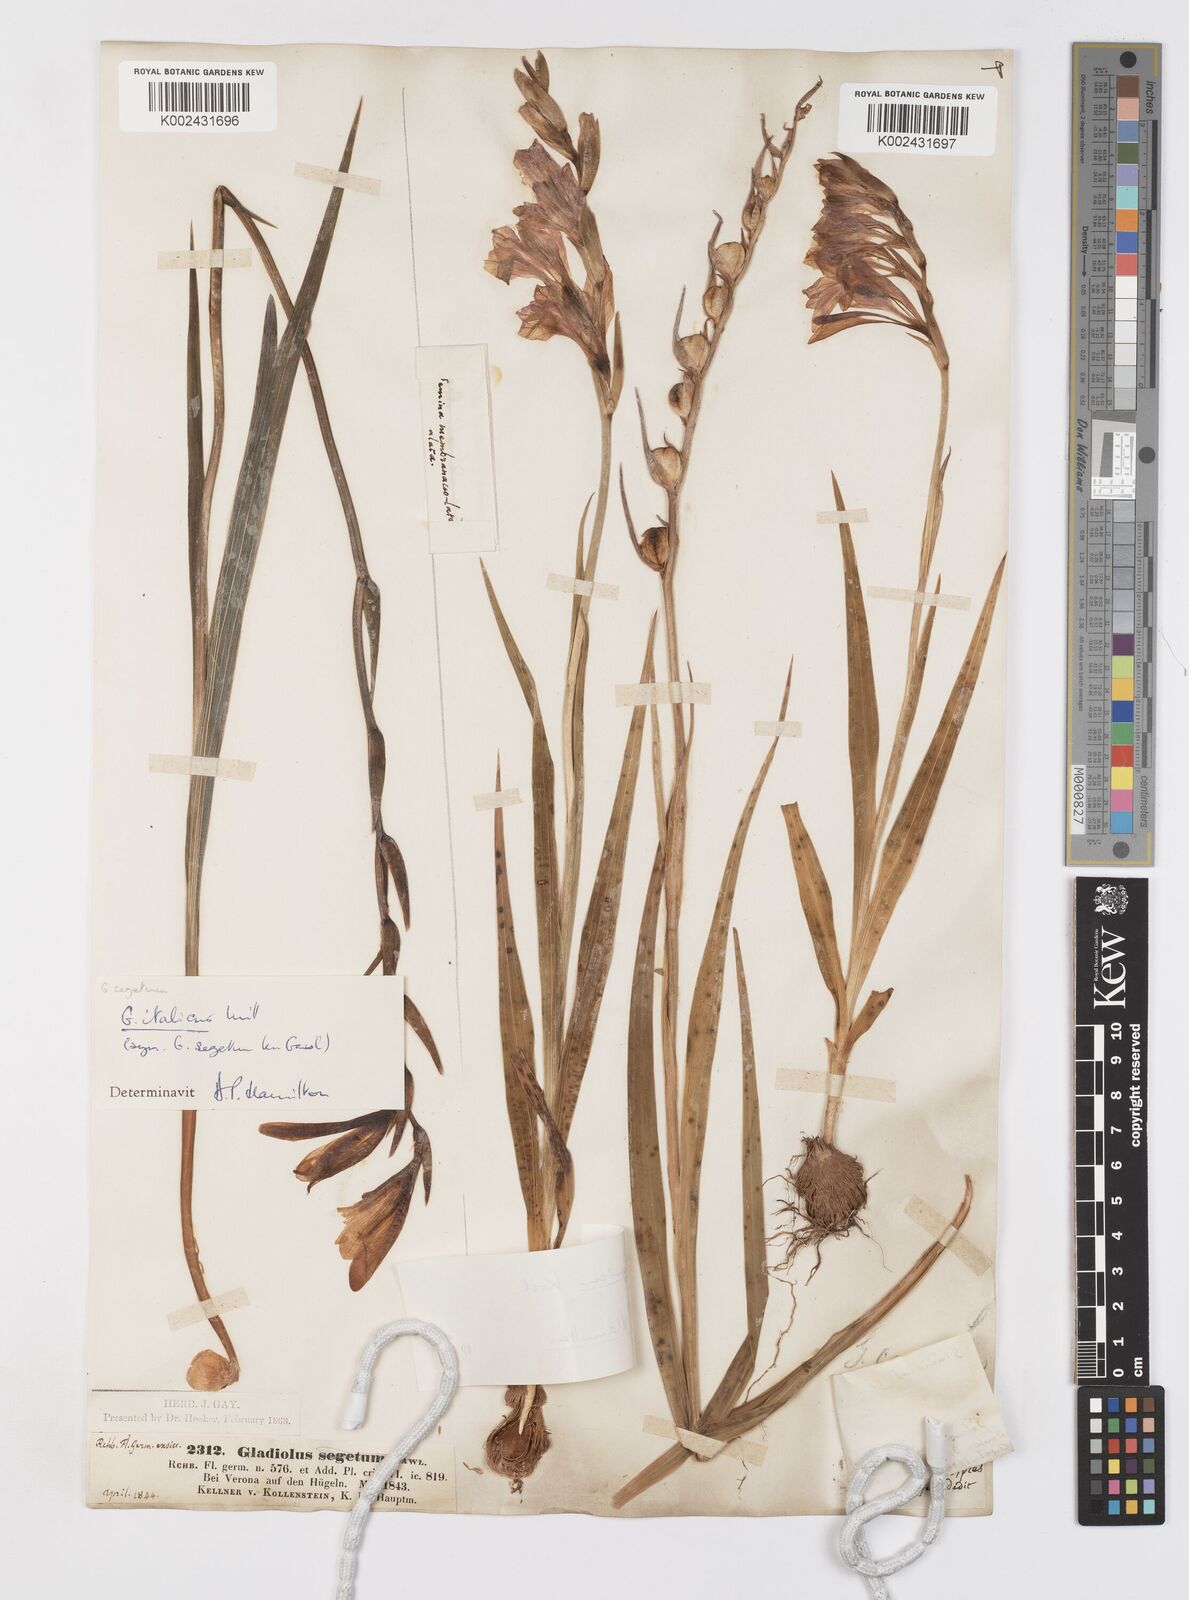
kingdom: Plantae
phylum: Tracheophyta
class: Liliopsida
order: Asparagales
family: Iridaceae
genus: Gladiolus
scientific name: Gladiolus illyricus
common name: Wild gladiolus
